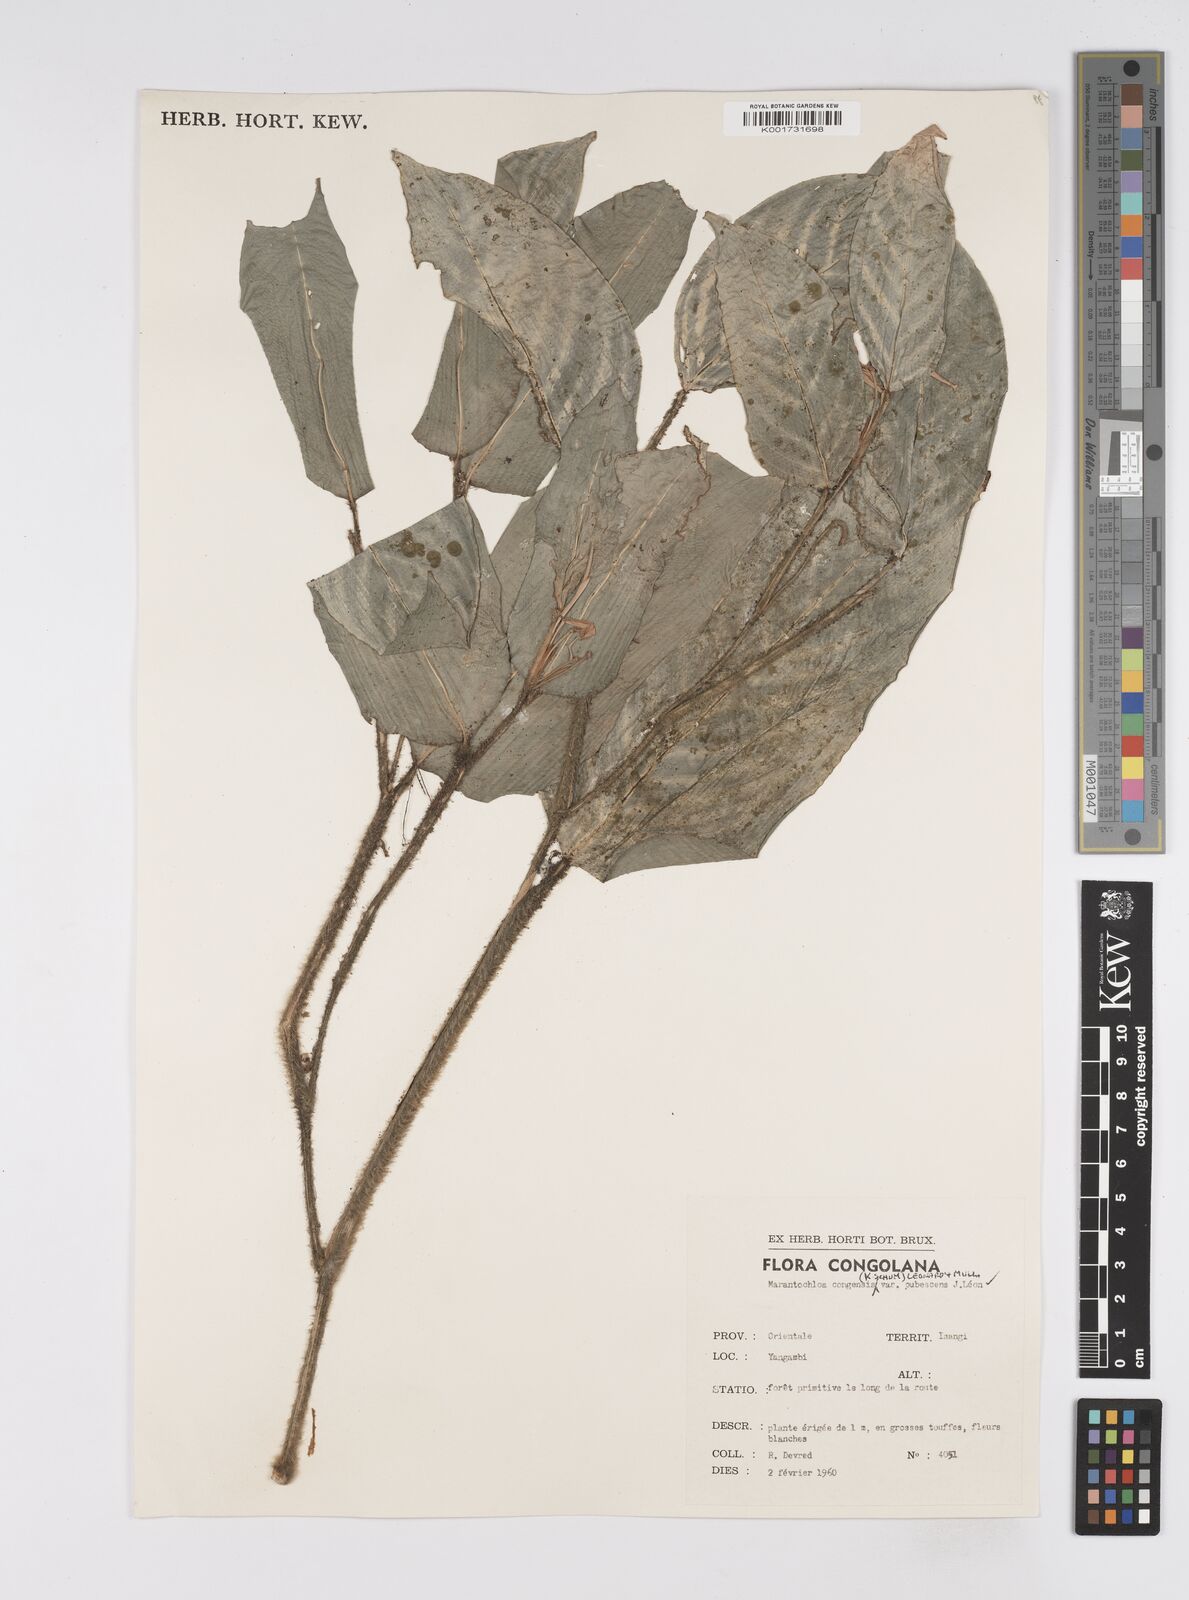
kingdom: Plantae
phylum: Tracheophyta
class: Liliopsida
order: Zingiberales
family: Marantaceae
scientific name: Marantaceae
